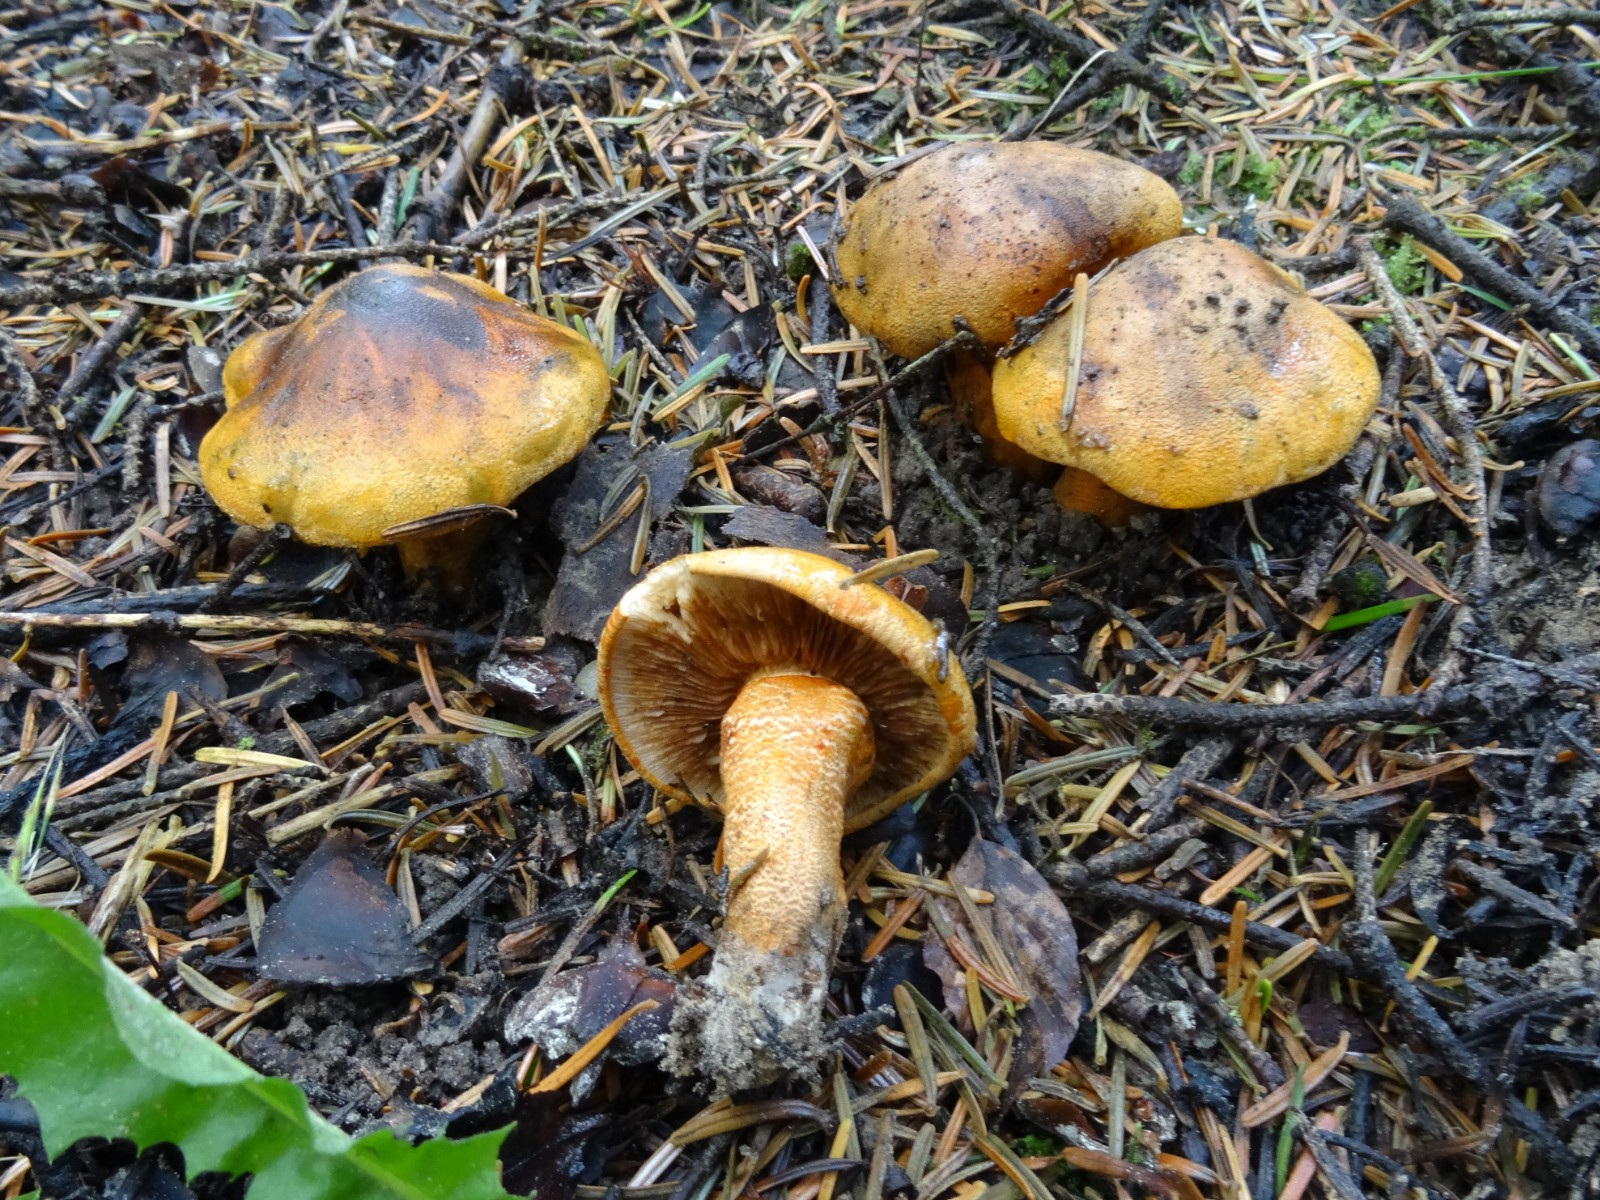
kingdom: Fungi
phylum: Basidiomycota
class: Agaricomycetes
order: Agaricales
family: Tricholomataceae
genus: Tricholoma
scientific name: Tricholoma aurantium
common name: orangegul ridderhat
